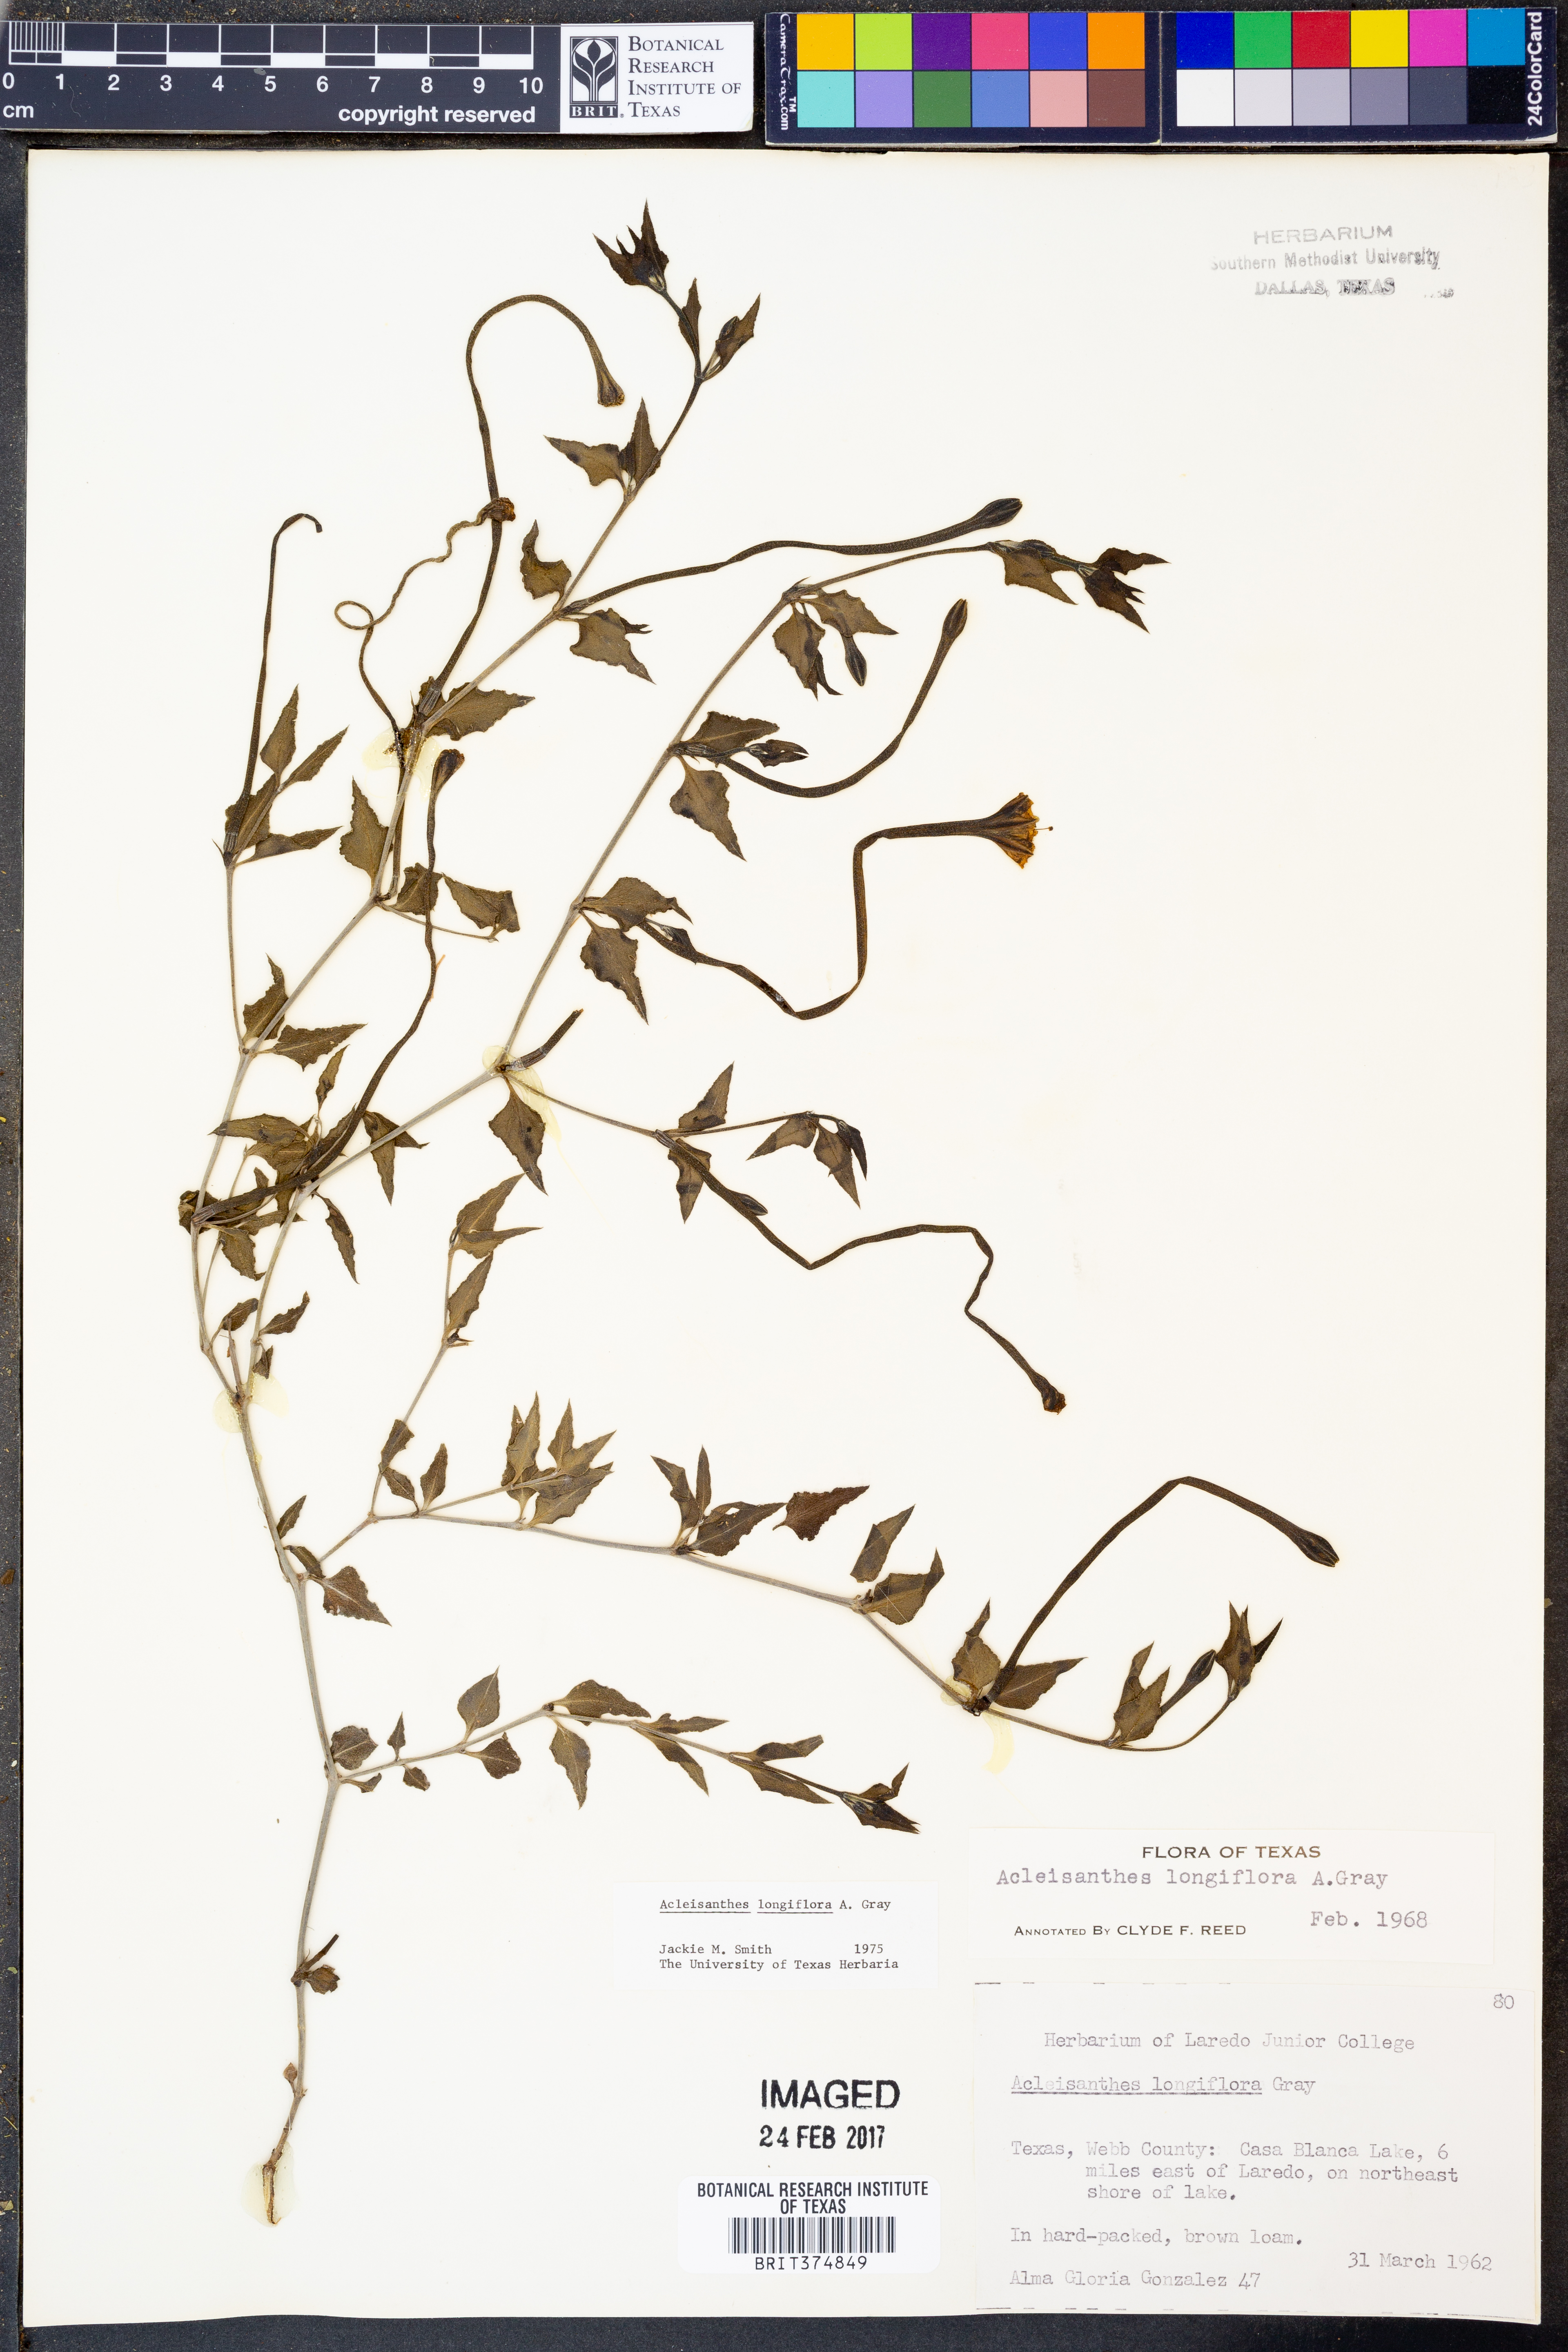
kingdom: Plantae
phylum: Tracheophyta
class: Magnoliopsida
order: Caryophyllales
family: Nyctaginaceae
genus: Acleisanthes
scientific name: Acleisanthes longiflora
